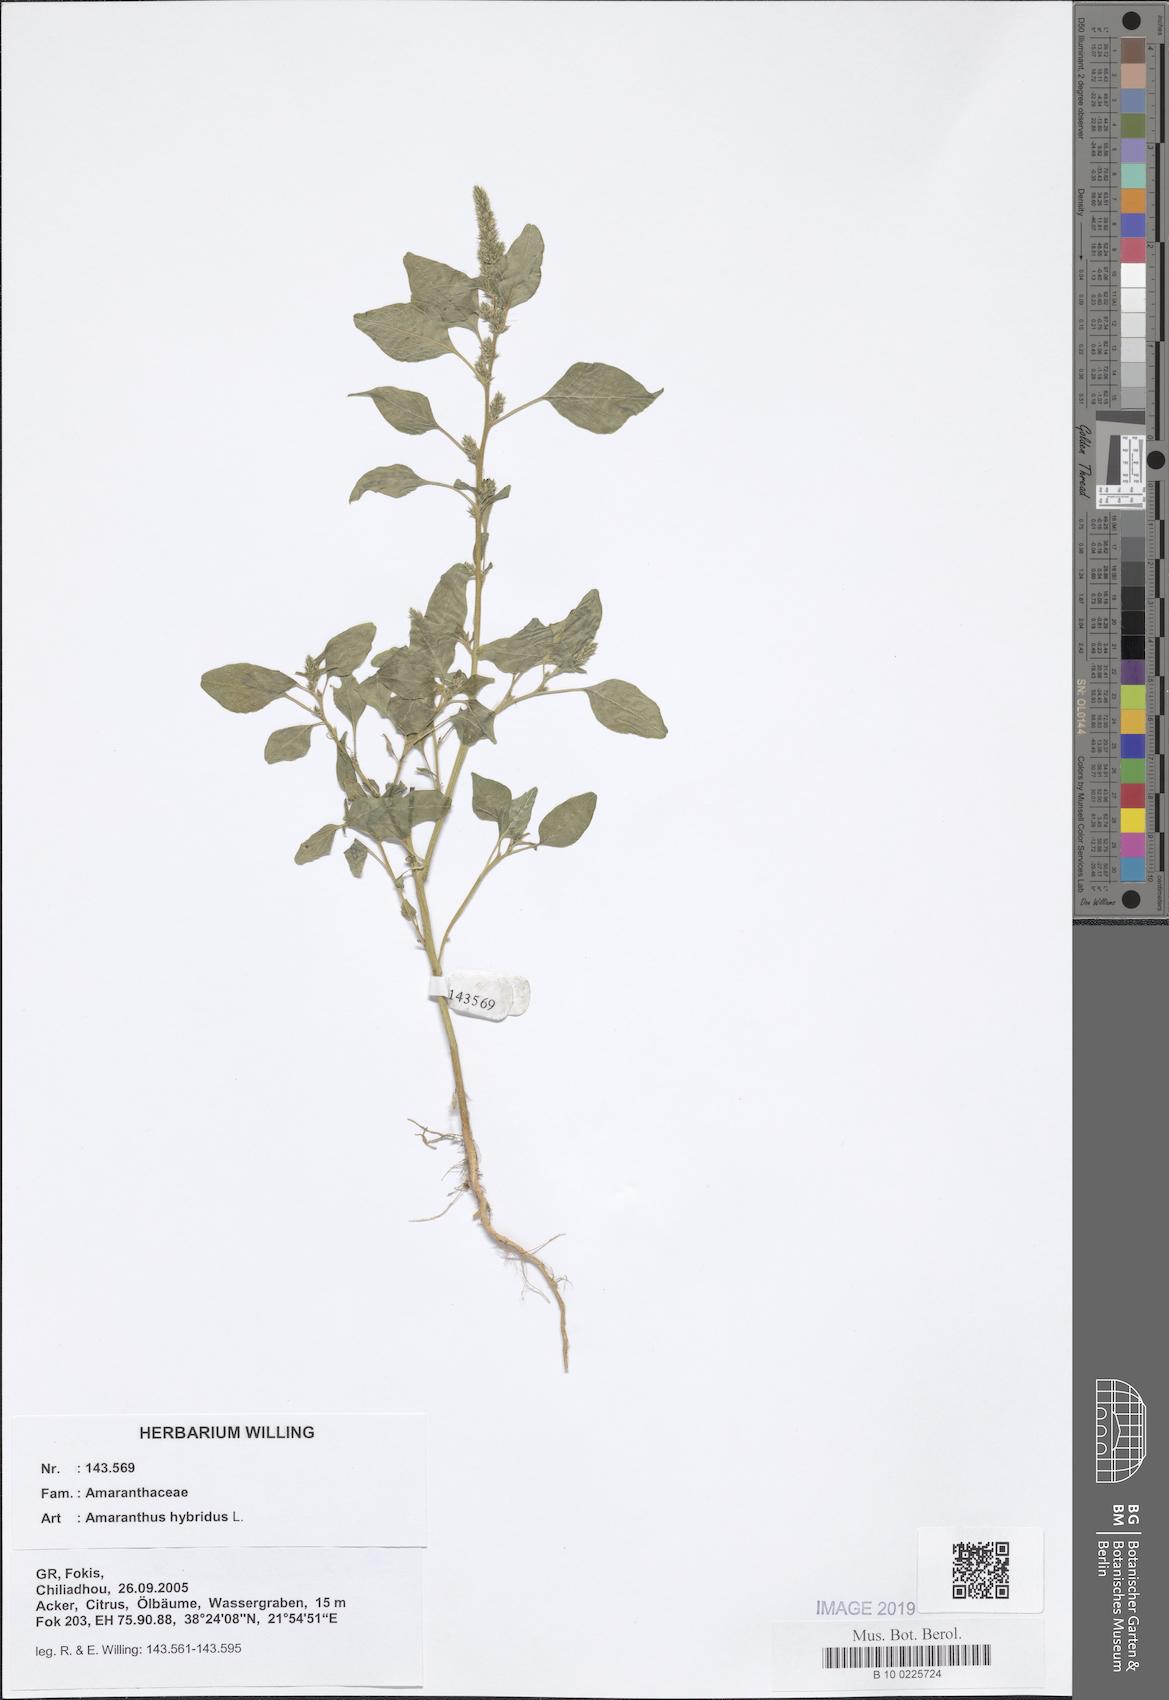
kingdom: Plantae
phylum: Tracheophyta
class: Magnoliopsida
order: Caryophyllales
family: Amaranthaceae
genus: Amaranthus
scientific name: Amaranthus hybridus
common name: Green amaranth
